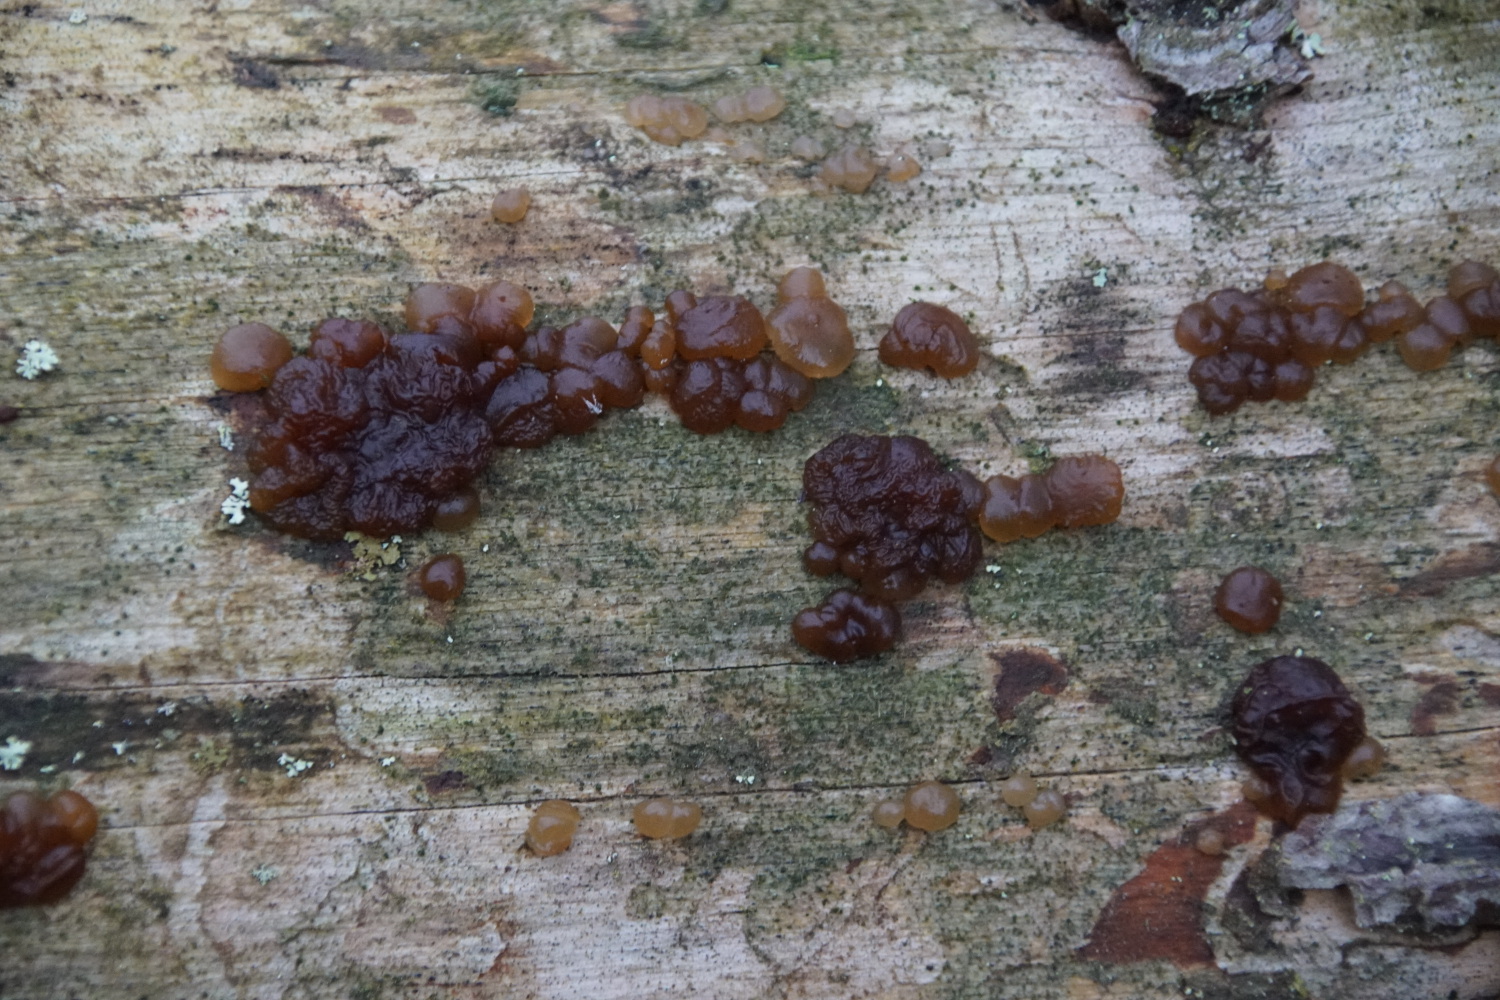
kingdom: Fungi
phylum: Basidiomycota
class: Agaricomycetes
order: Auriculariales
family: Auriculariaceae
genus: Exidia
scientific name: Exidia saccharina
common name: kandis-bævretop
